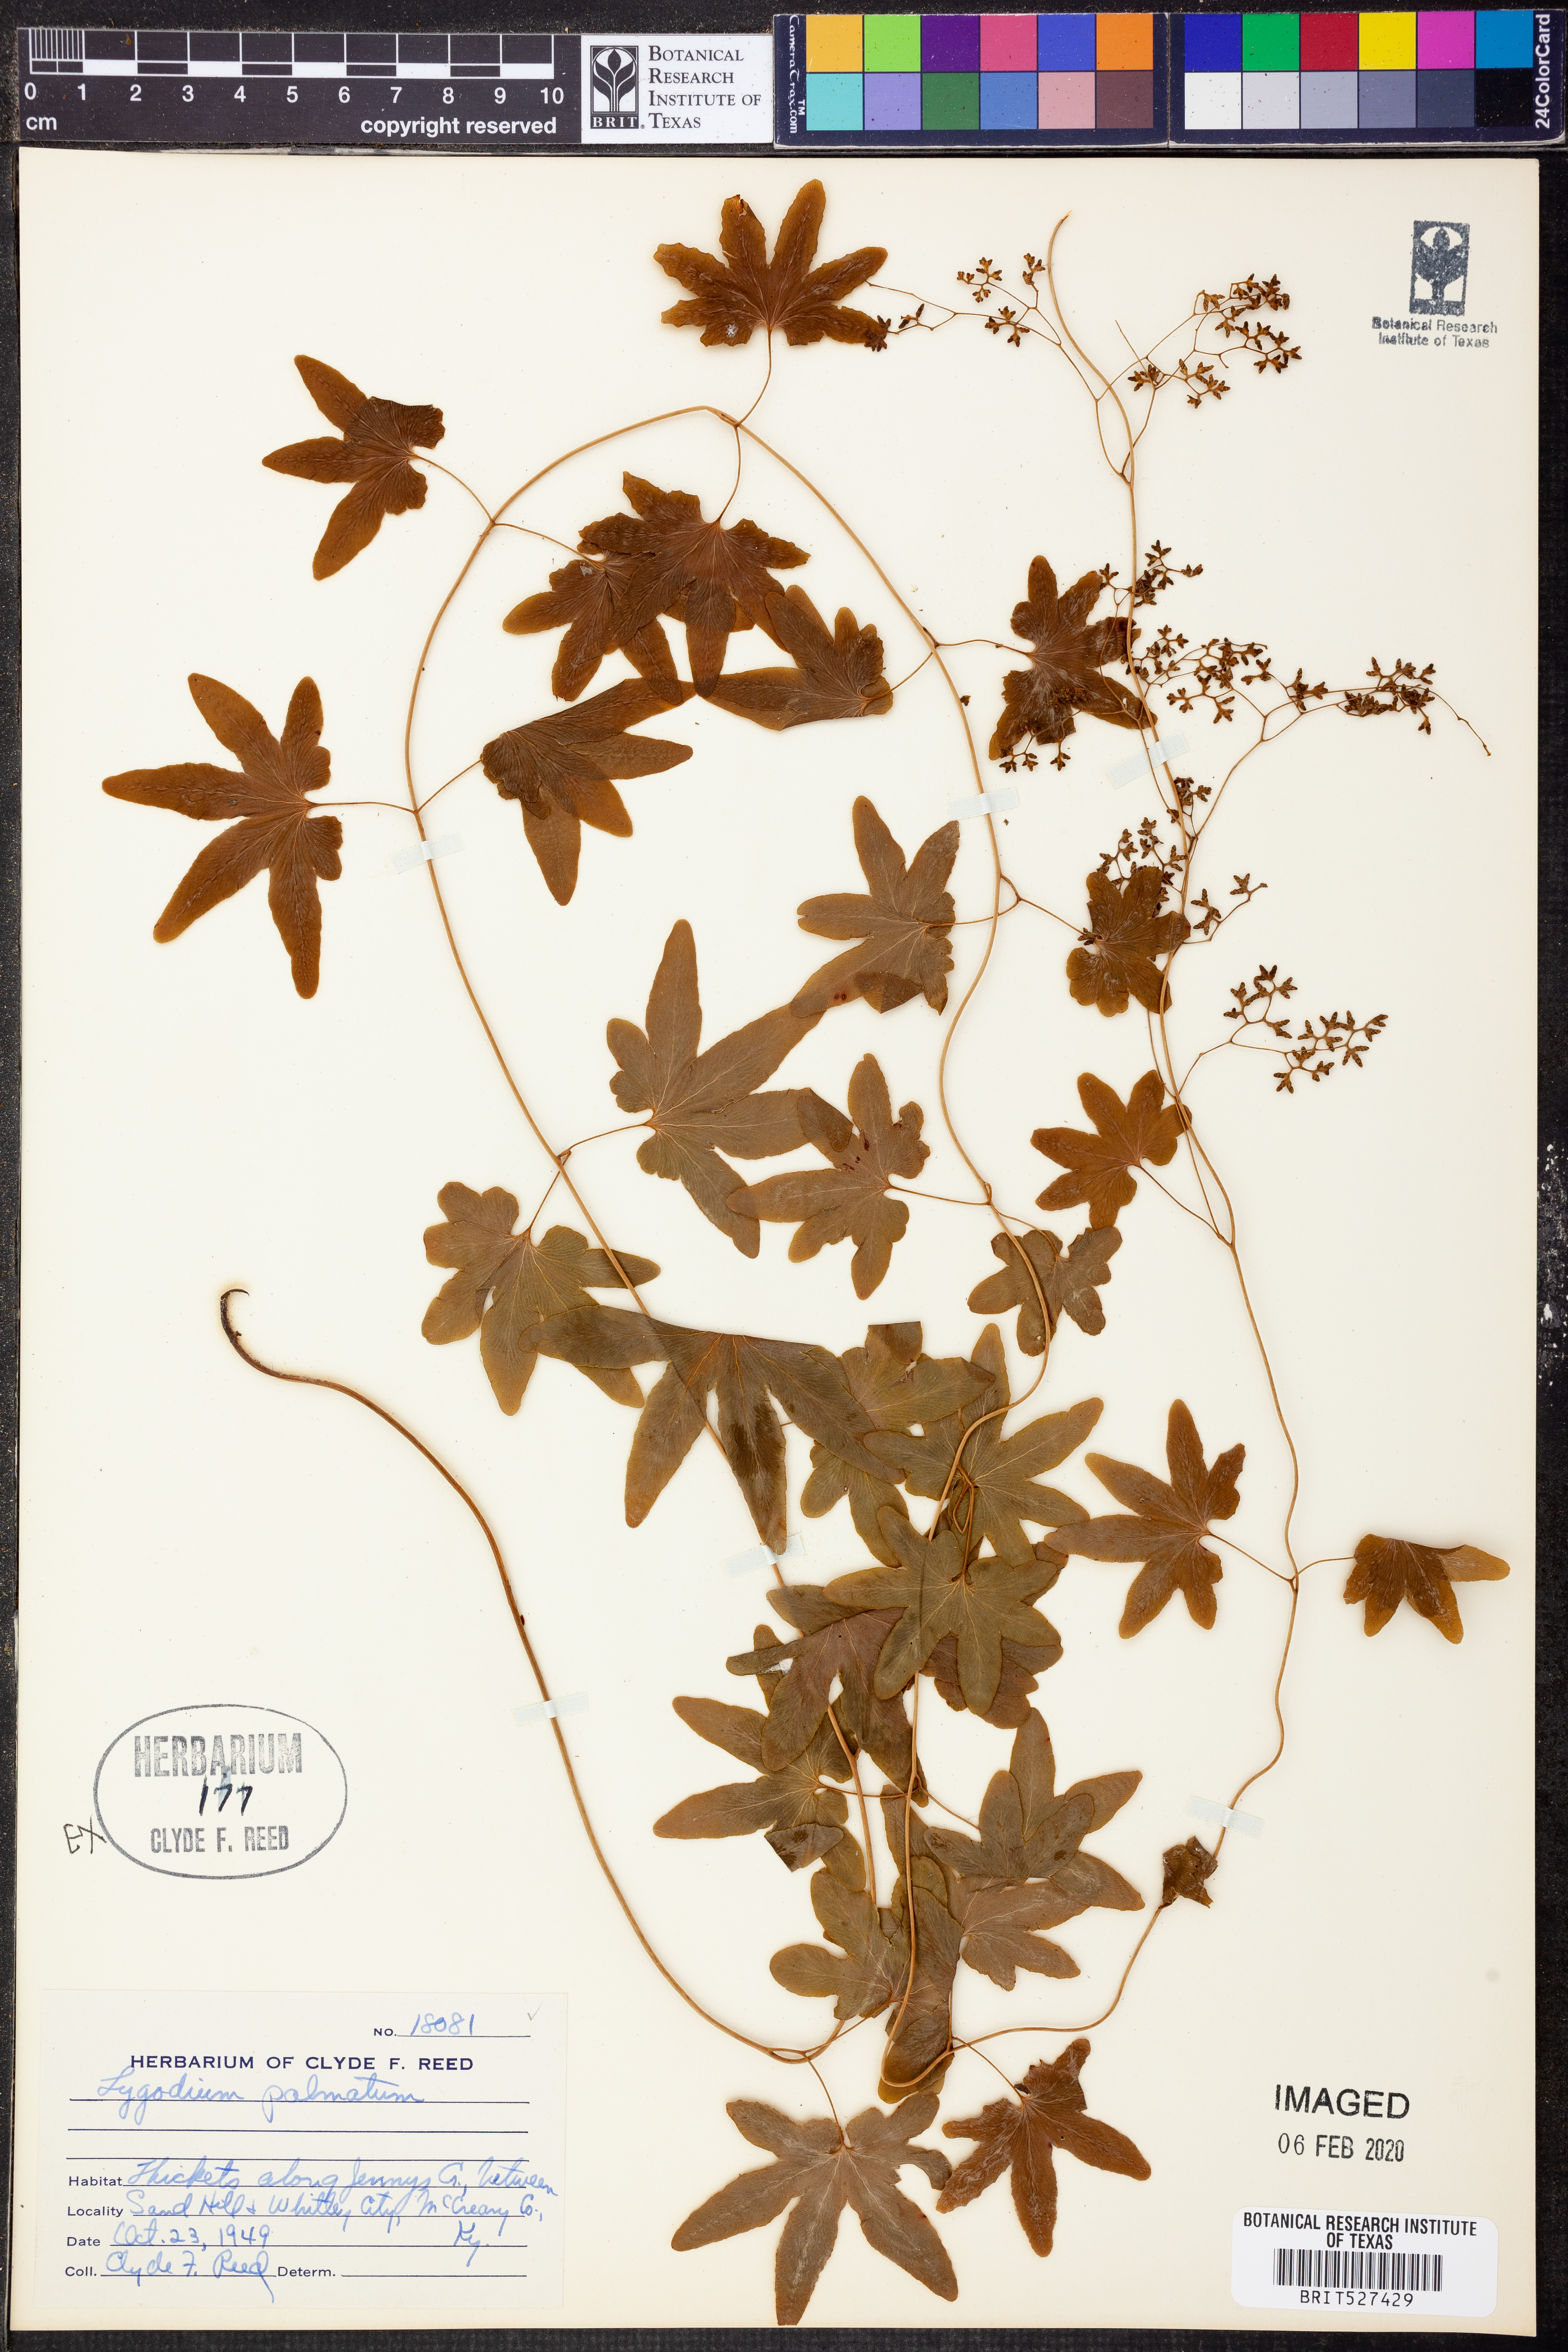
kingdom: Plantae
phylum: Tracheophyta
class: Polypodiopsida
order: Schizaeales
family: Lygodiaceae
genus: Lygodium
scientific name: Lygodium palmatum
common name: American climbing fern
